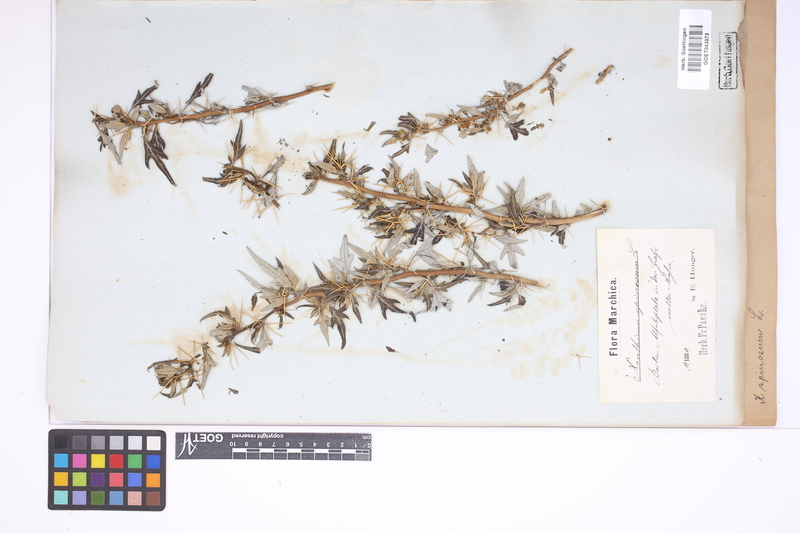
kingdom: Plantae
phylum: Tracheophyta
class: Magnoliopsida
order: Asterales
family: Asteraceae
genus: Xanthium
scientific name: Xanthium spinosum
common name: Spiny cocklebur
